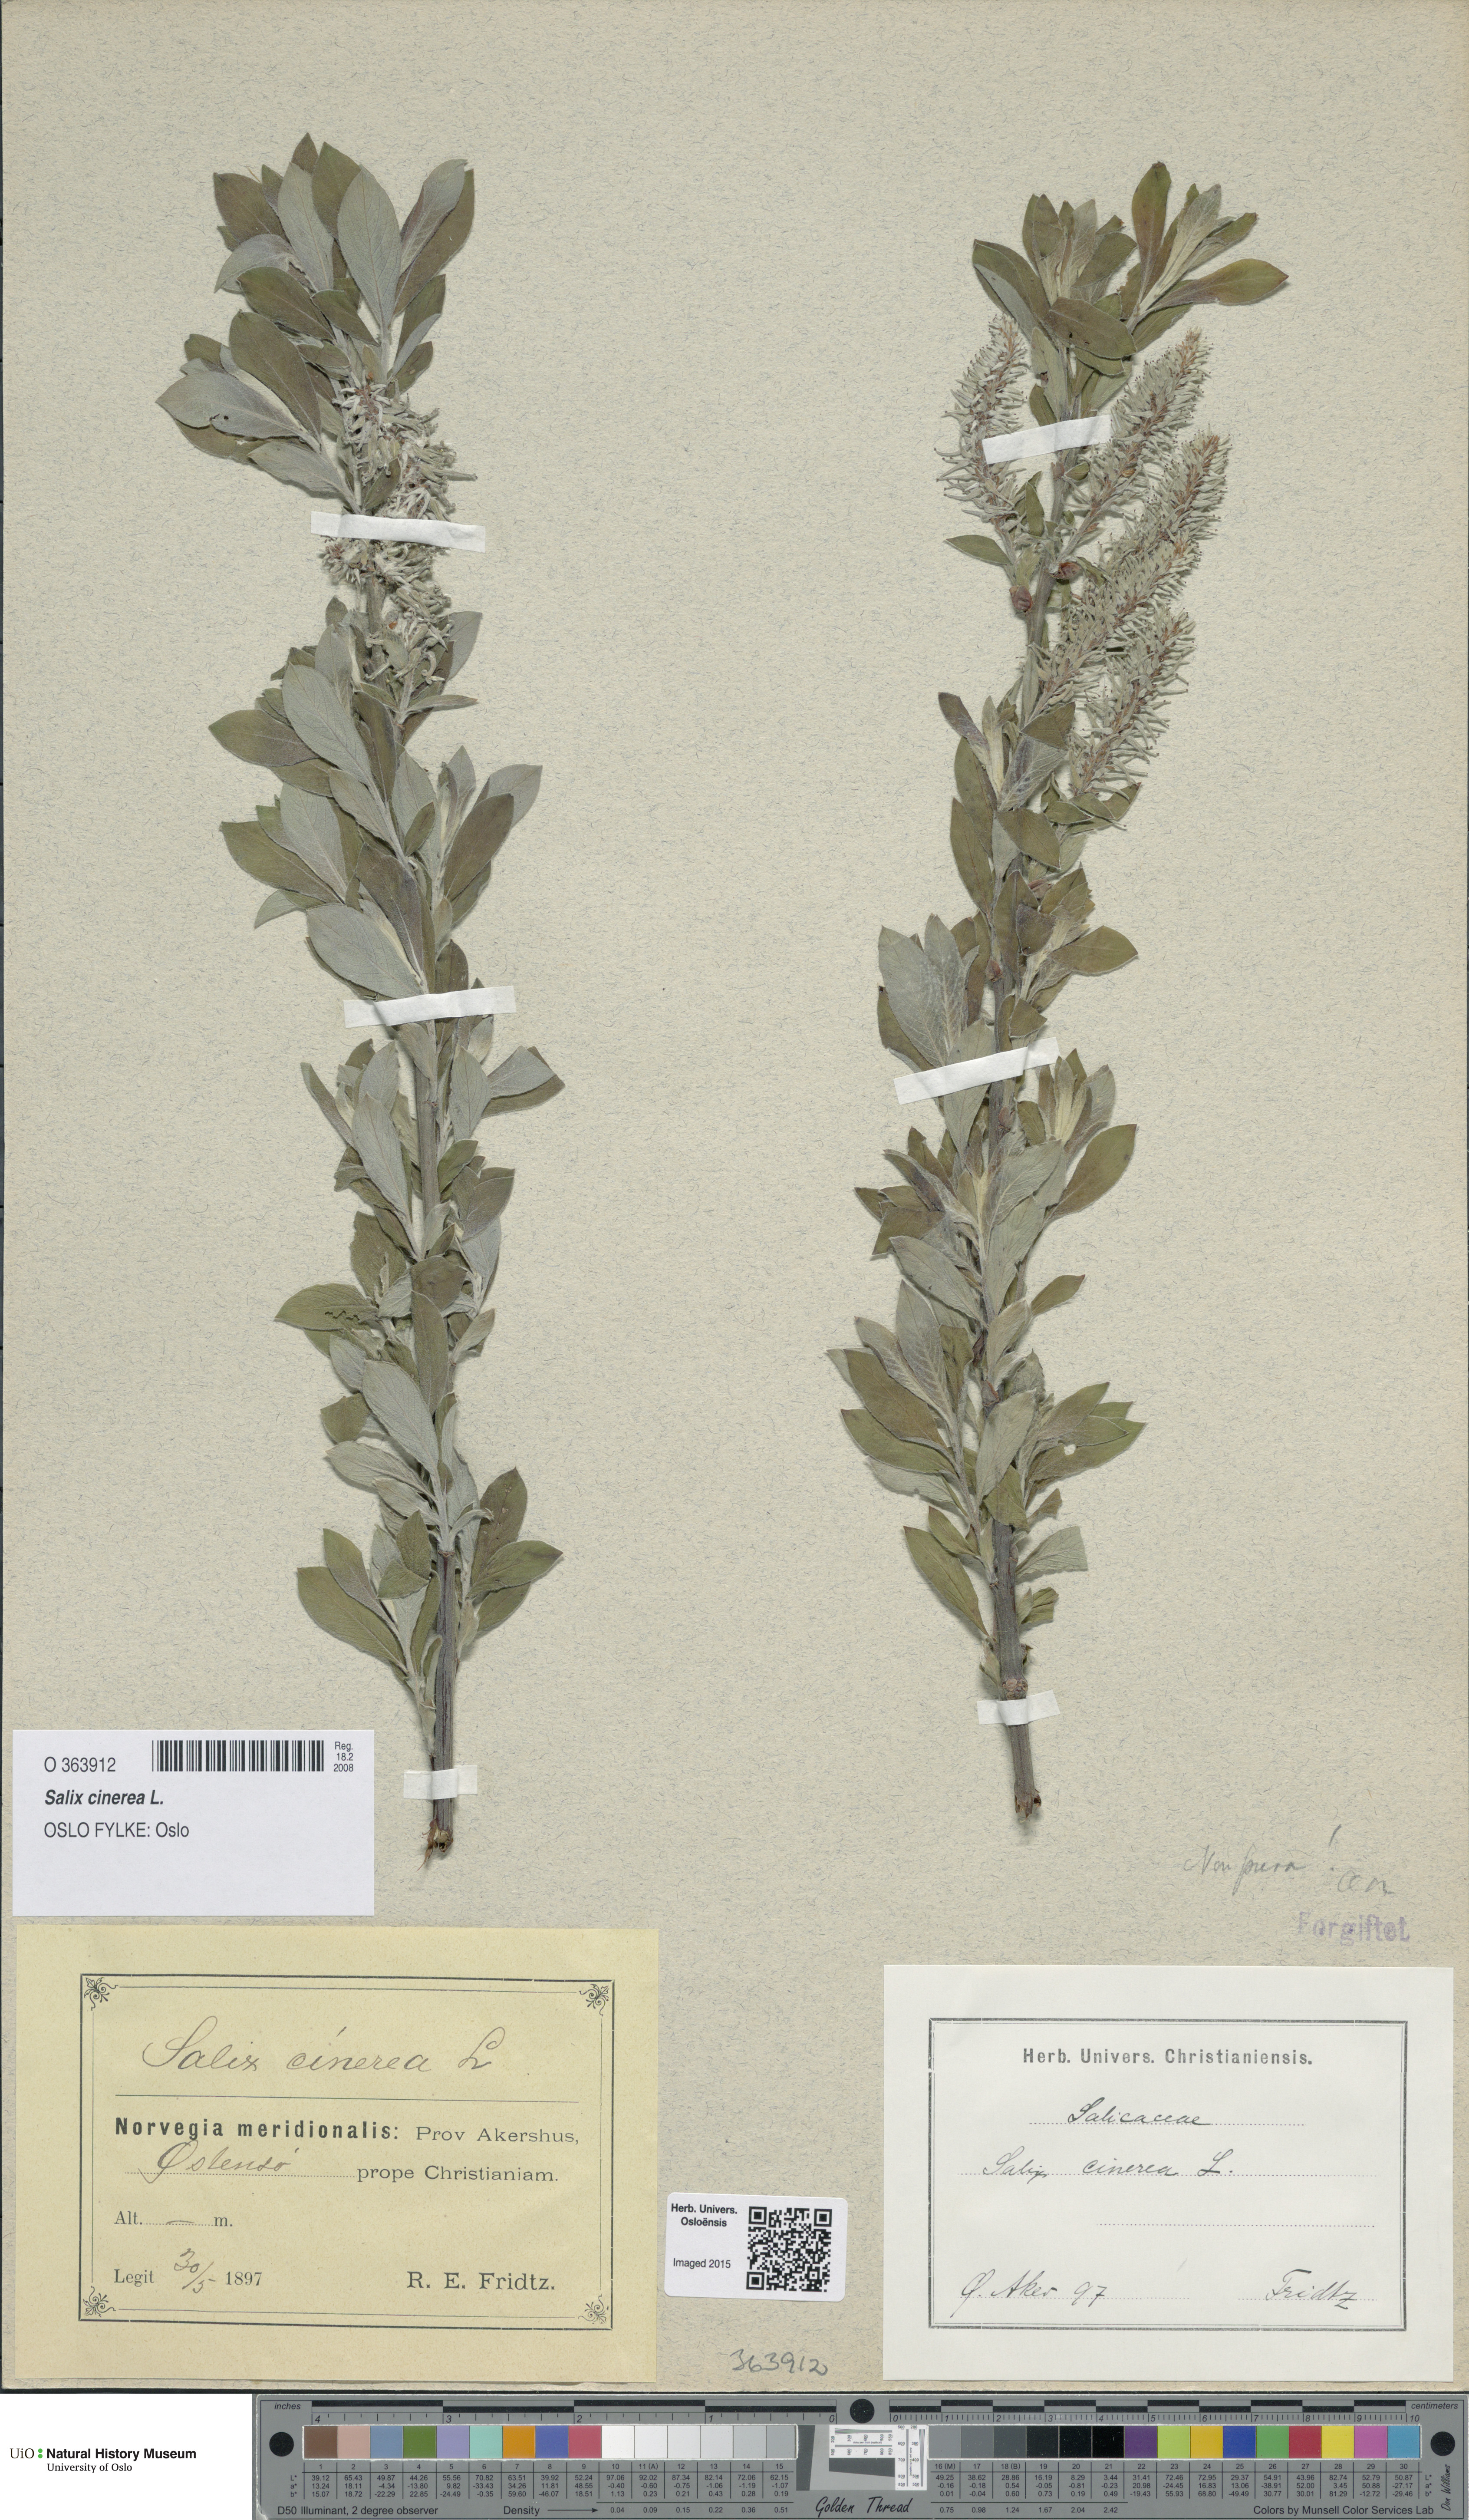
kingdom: Plantae
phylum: Tracheophyta
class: Magnoliopsida
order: Malpighiales
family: Salicaceae
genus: Salix
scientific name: Salix cinerea
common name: Common sallow
